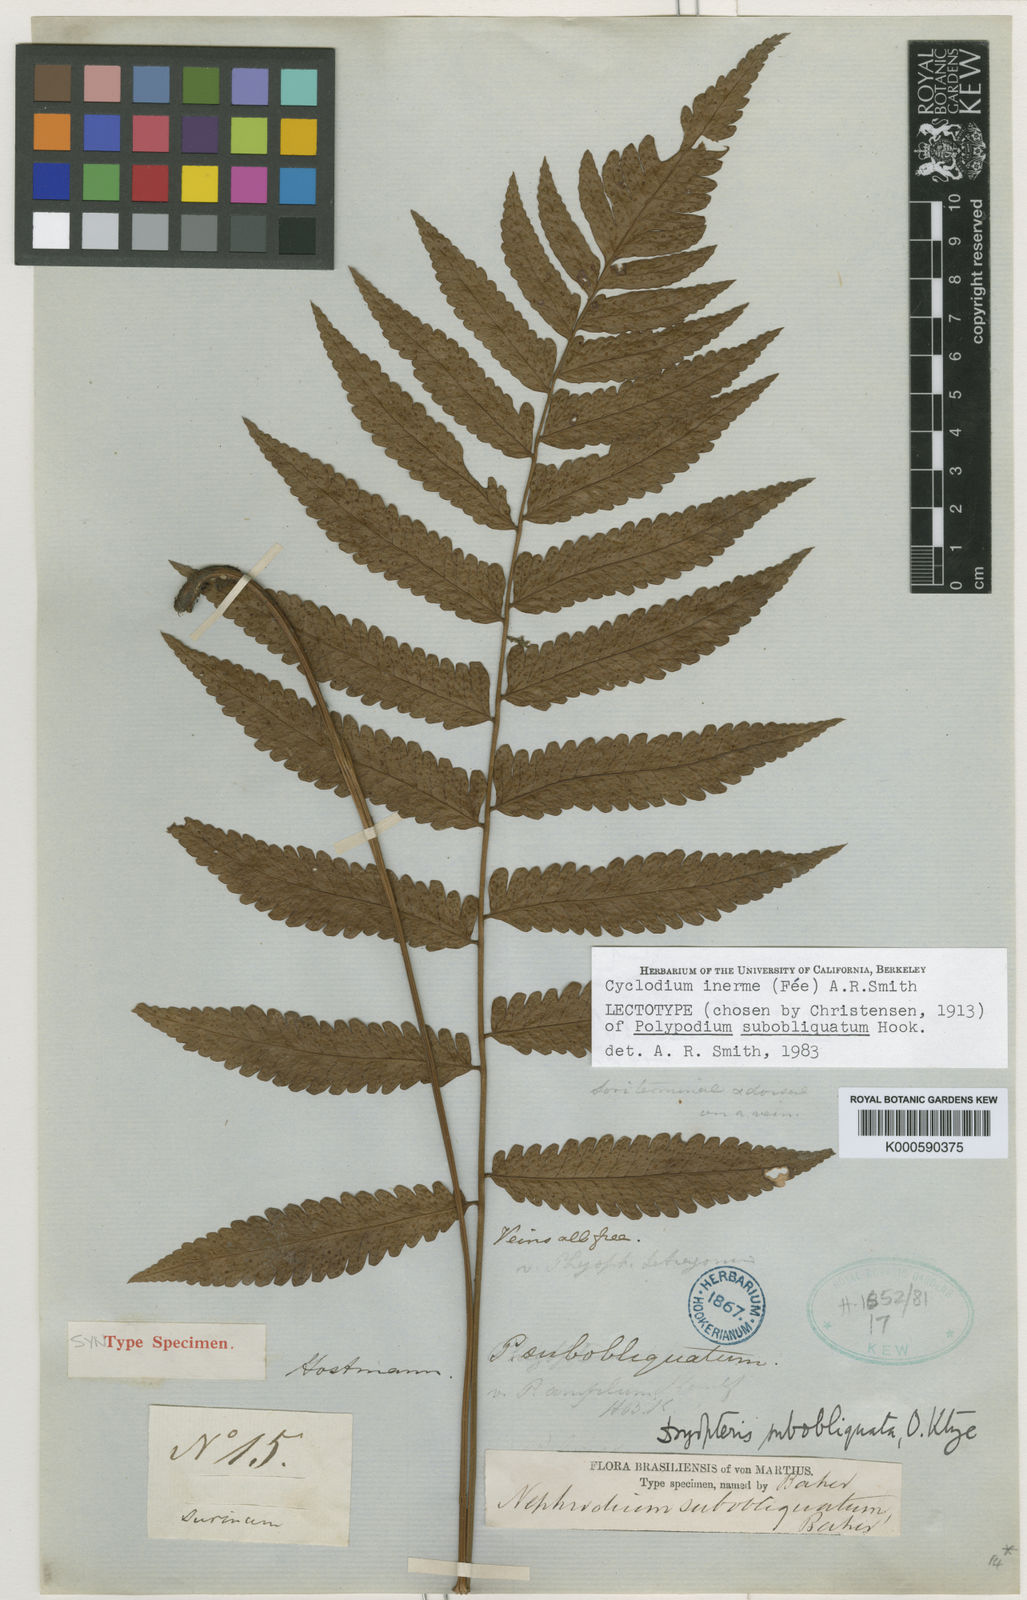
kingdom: Plantae
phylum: Tracheophyta
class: Polypodiopsida
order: Polypodiales
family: Dryopteridaceae
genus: Cyclodium
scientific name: Cyclodium
